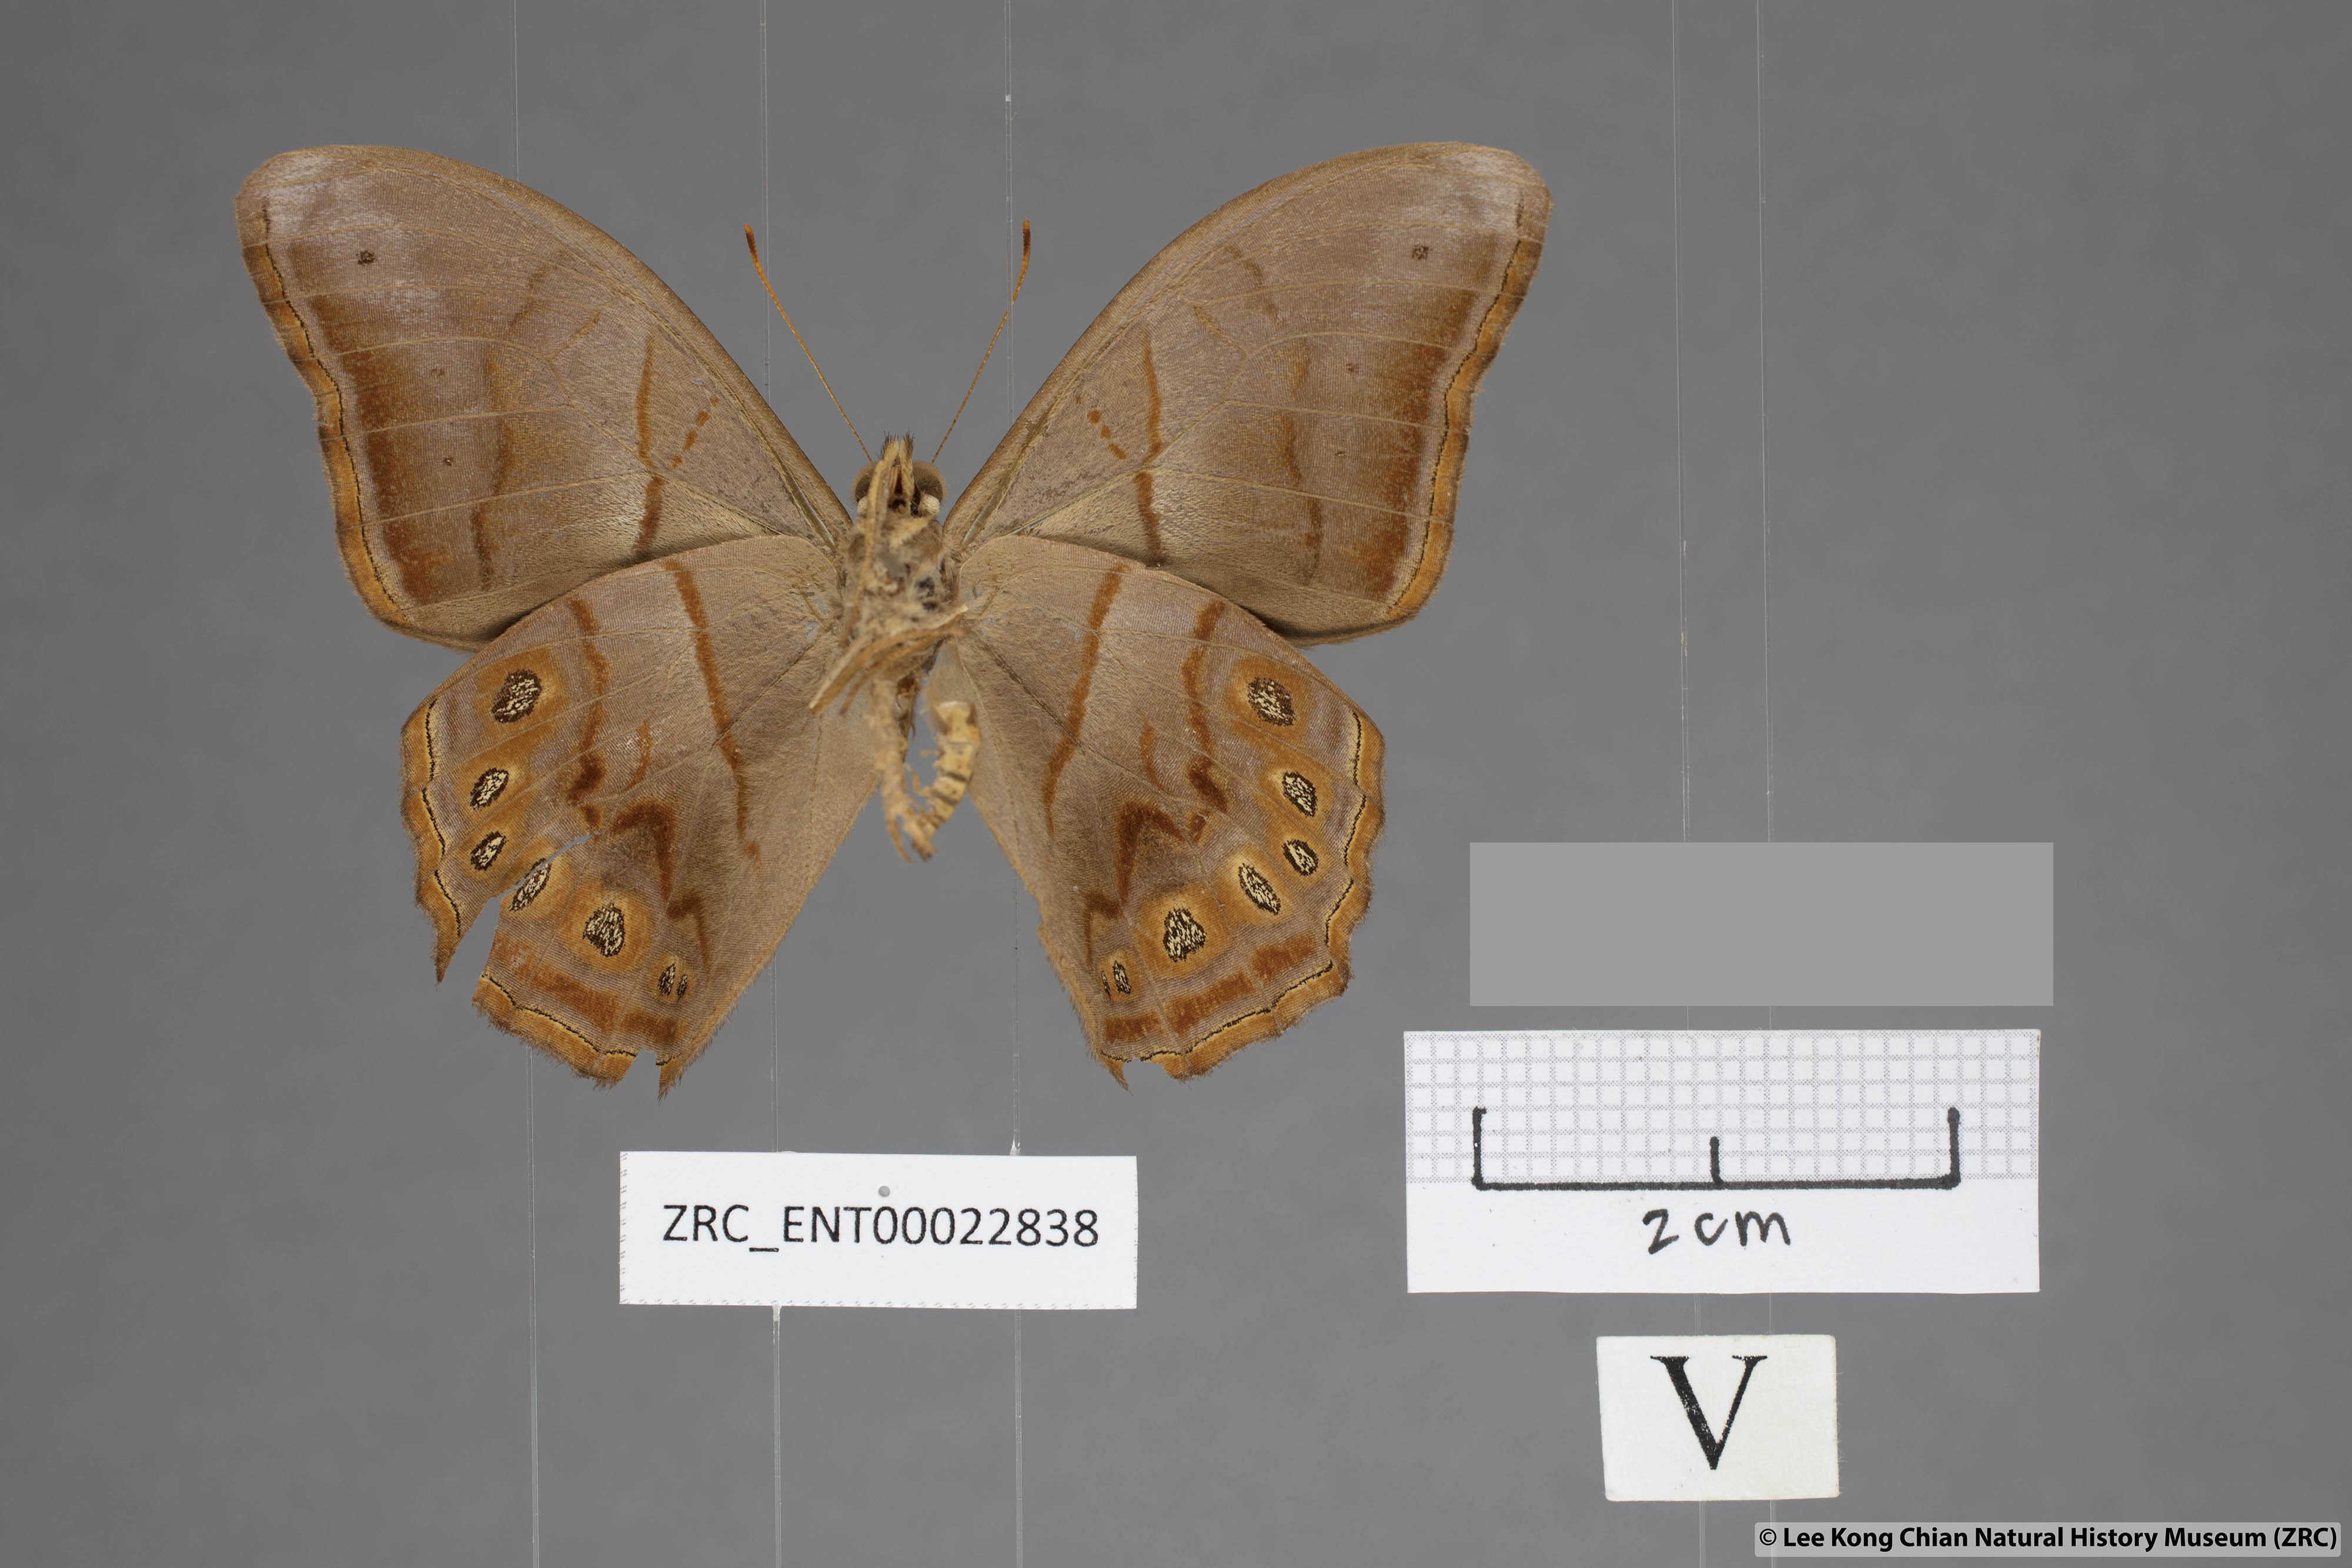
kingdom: Animalia
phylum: Arthropoda
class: Insecta
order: Lepidoptera
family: Nymphalidae
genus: Lethe
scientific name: Lethe minerva
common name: Banded red forester
